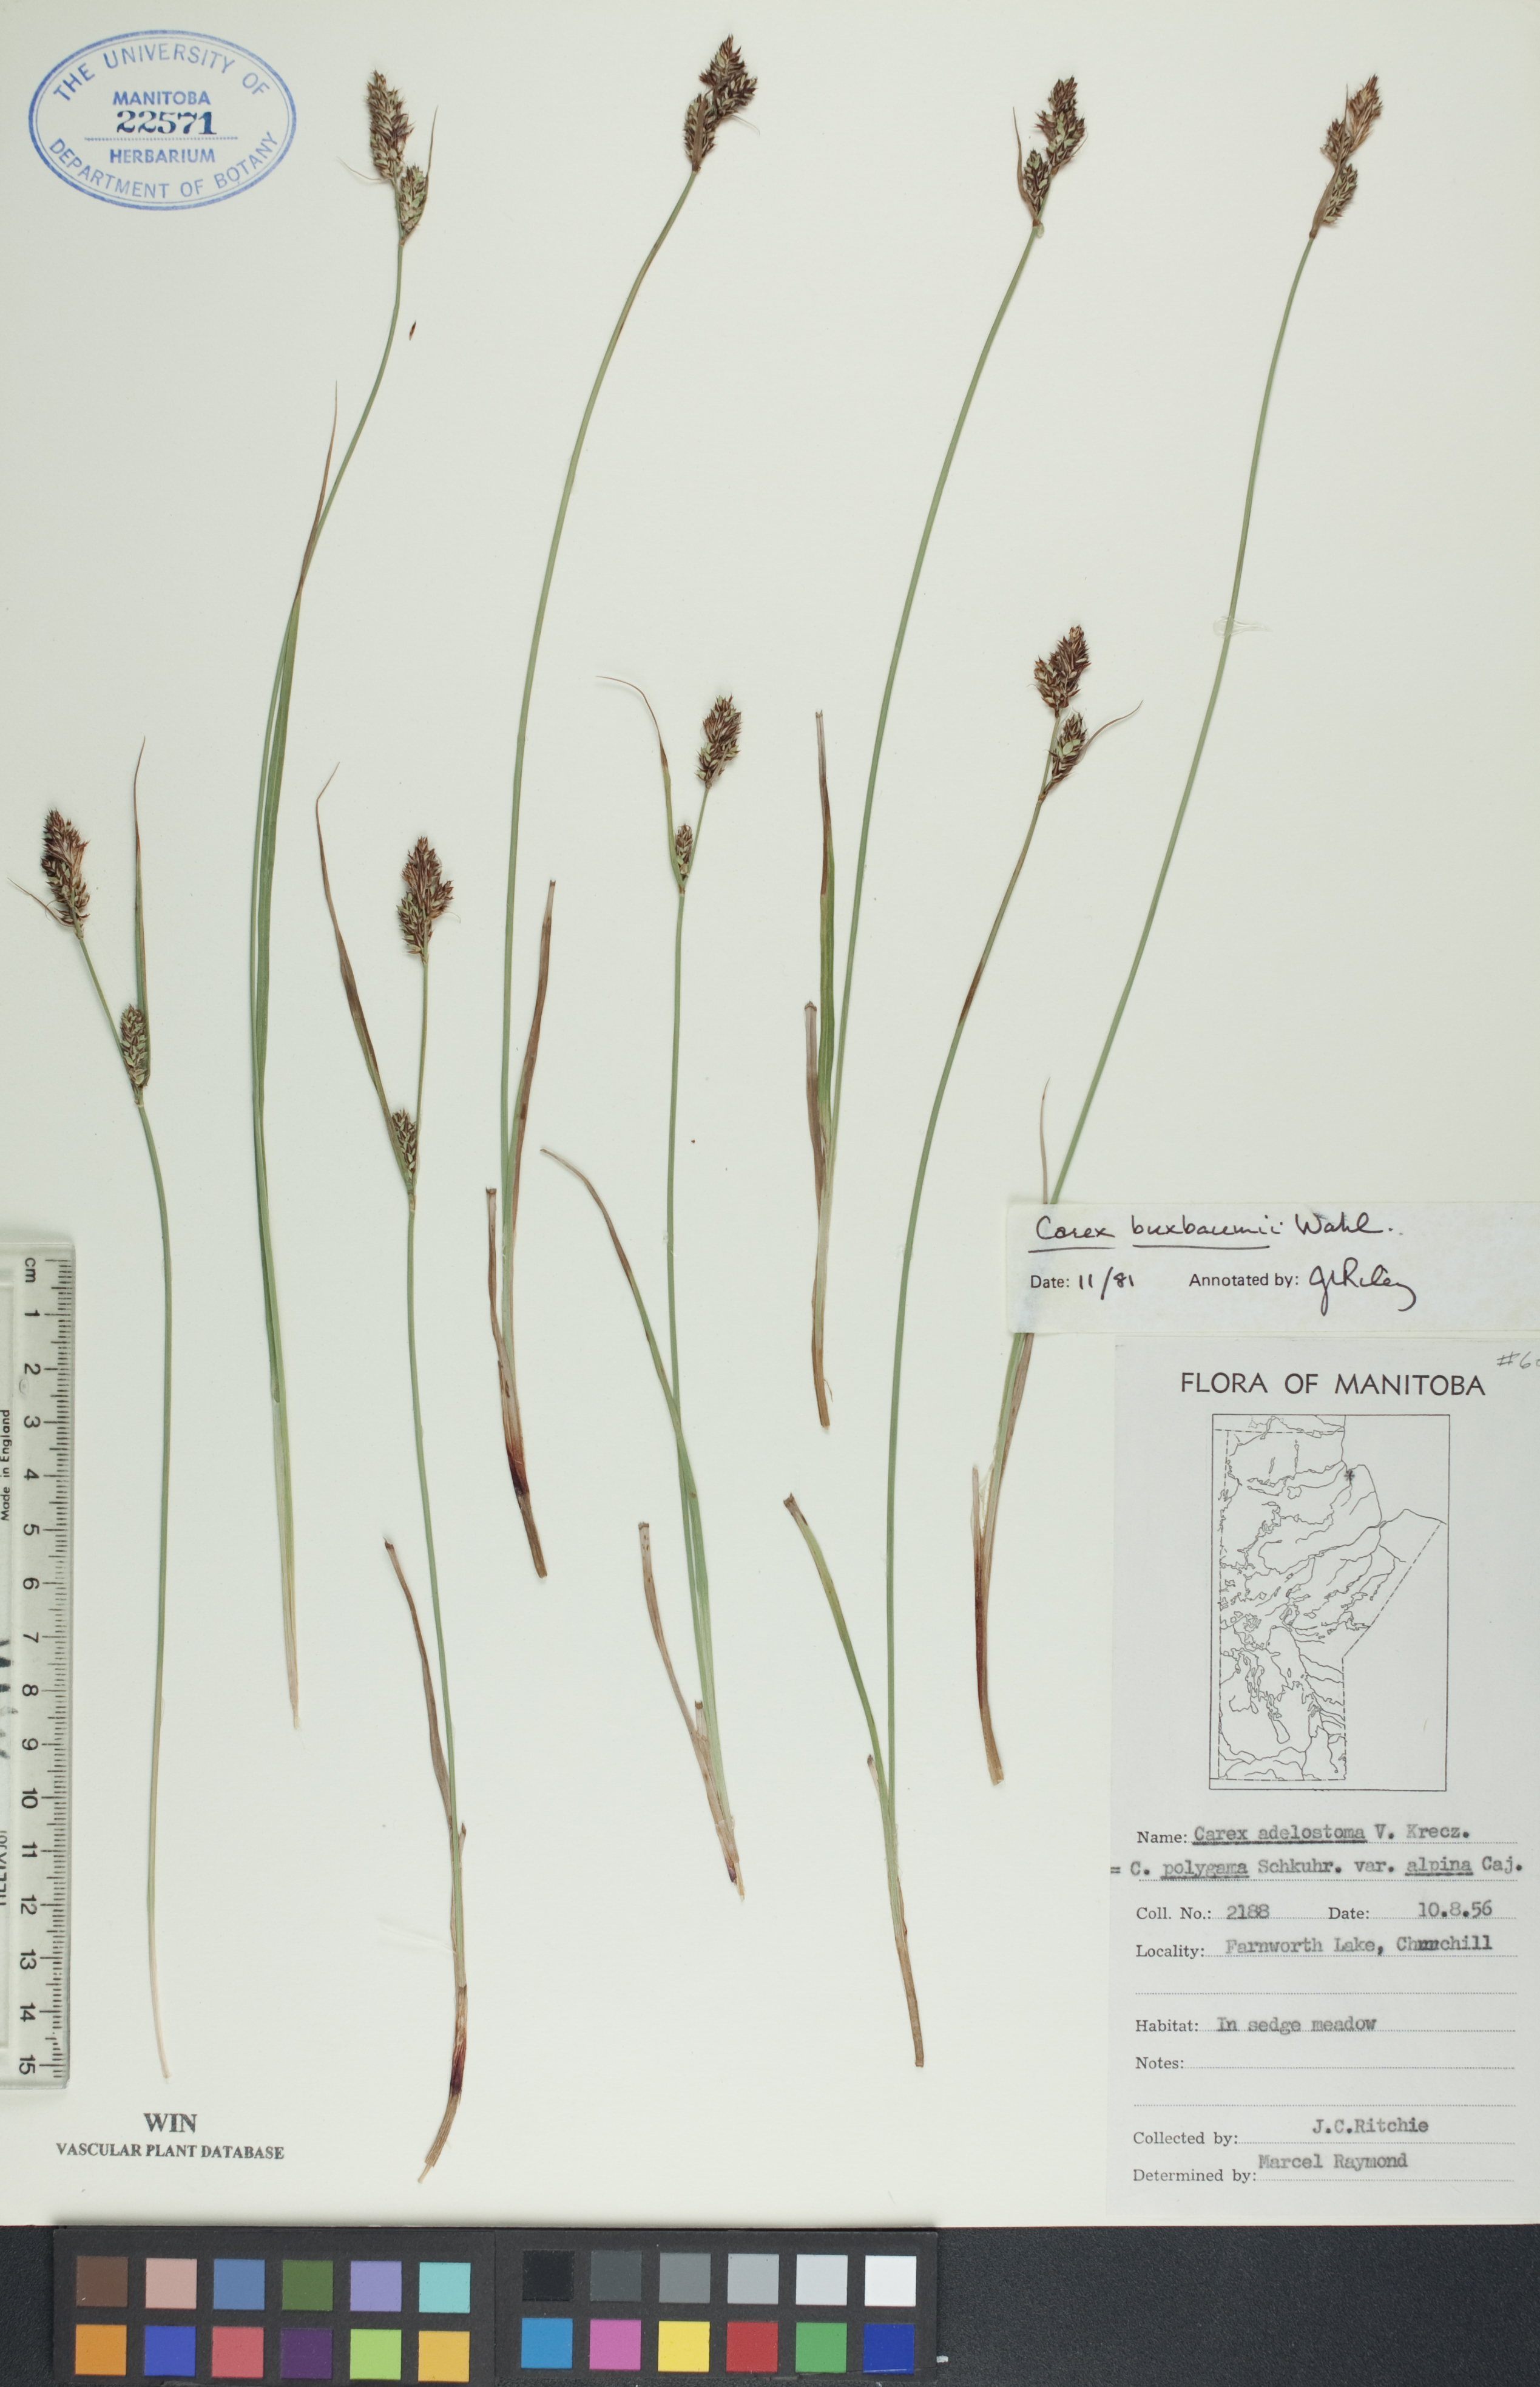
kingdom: Plantae
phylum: Tracheophyta
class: Liliopsida
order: Poales
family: Cyperaceae
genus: Carex
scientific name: Carex buxbaumii
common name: Club sedge
